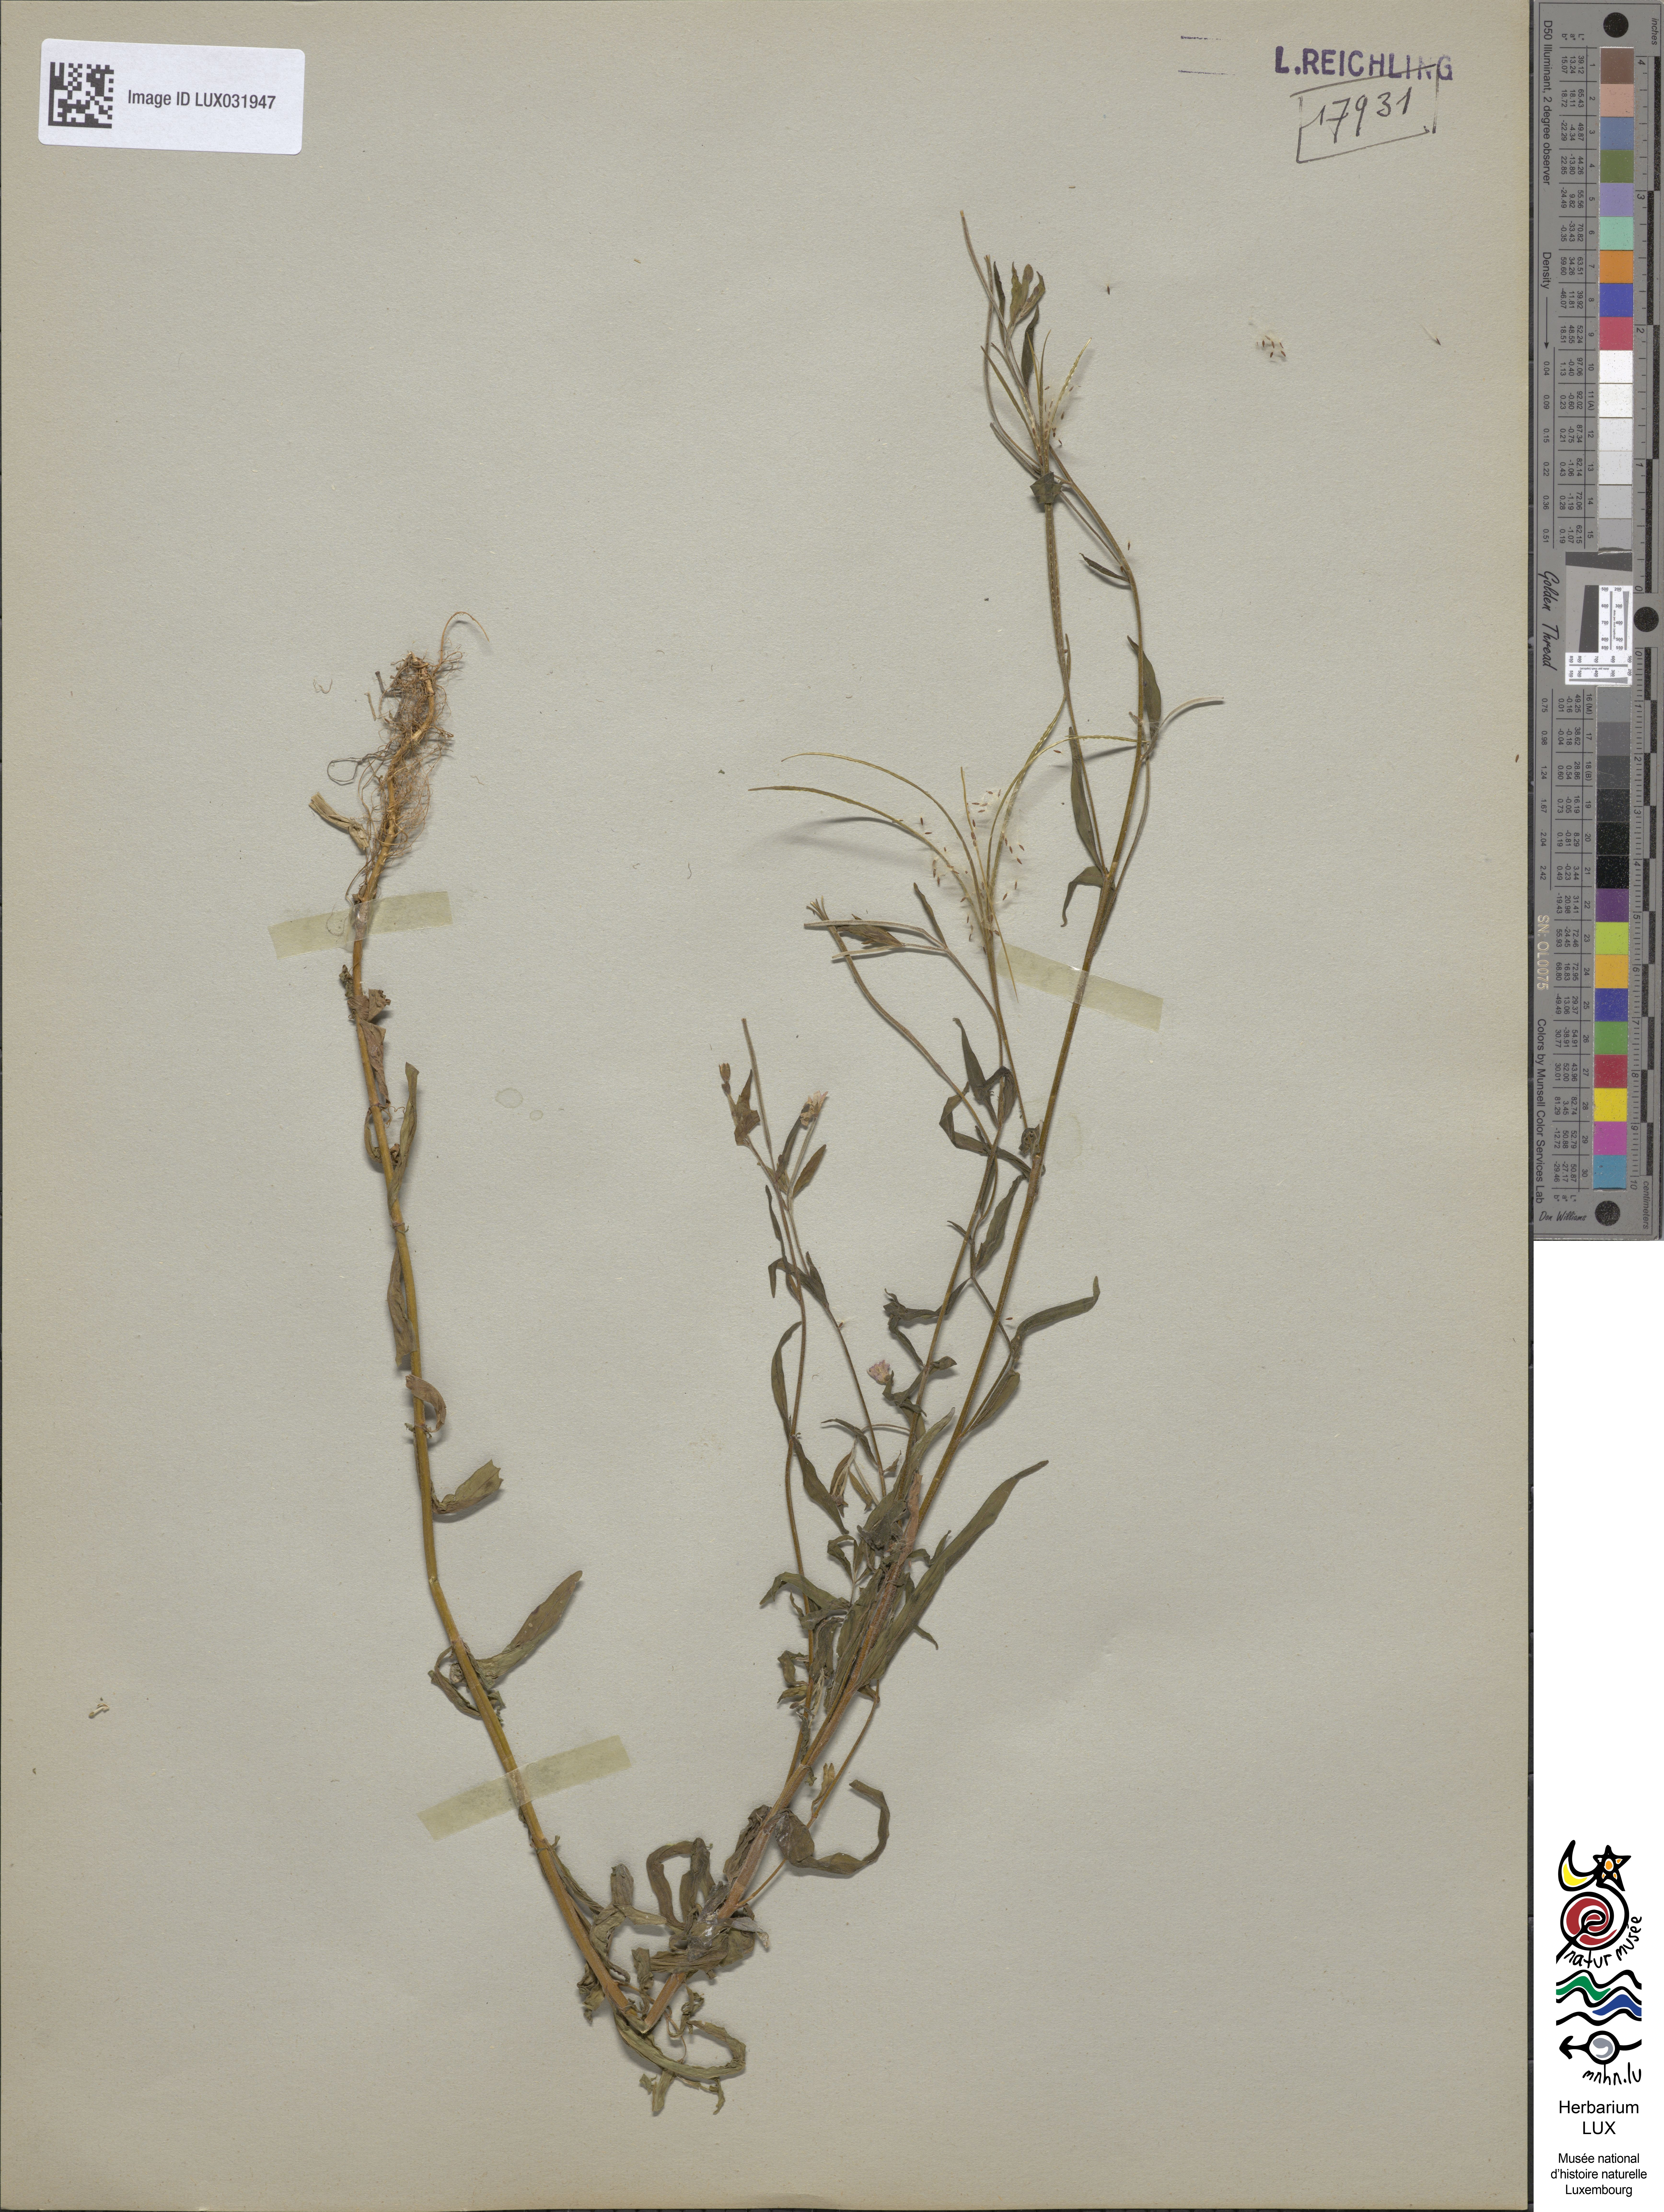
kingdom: Plantae
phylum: Tracheophyta
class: Magnoliopsida
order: Myrtales
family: Onagraceae
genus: Epilobium
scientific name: Epilobium palustre
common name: Marsh willowherb
